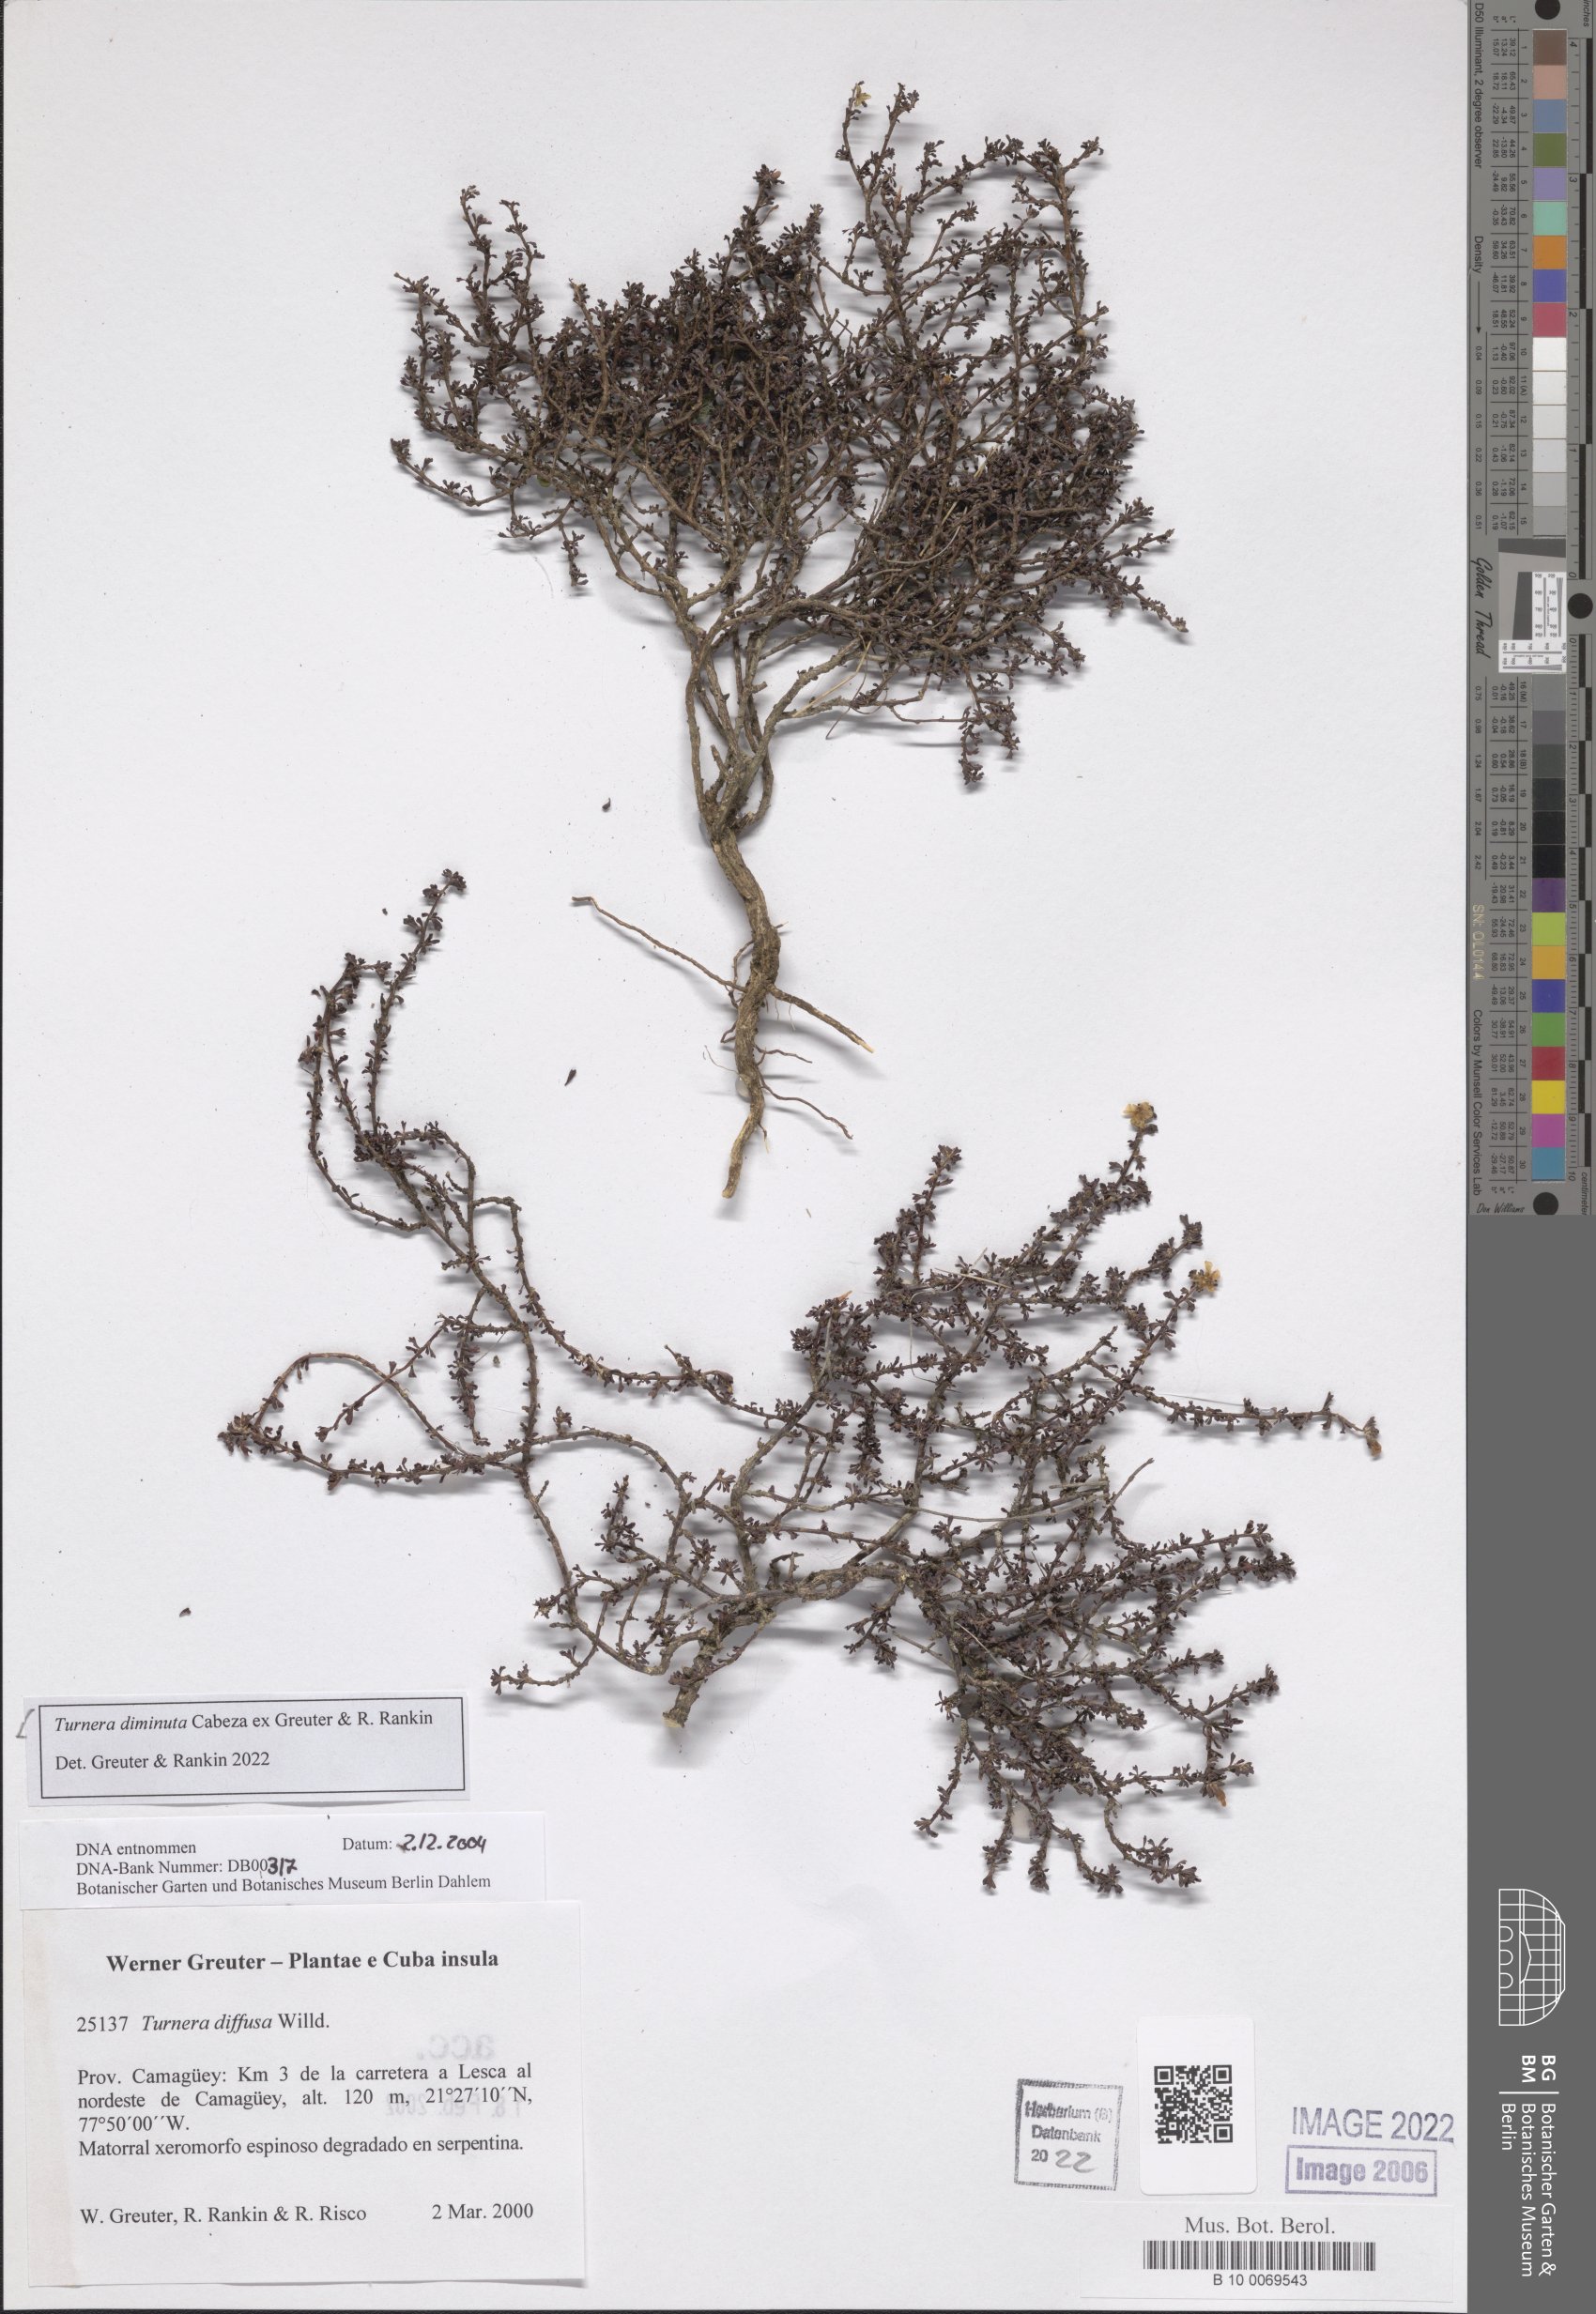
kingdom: Plantae
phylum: Tracheophyta
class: Magnoliopsida
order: Malpighiales
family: Turneraceae
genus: Turnera
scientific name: Turnera diminuta
